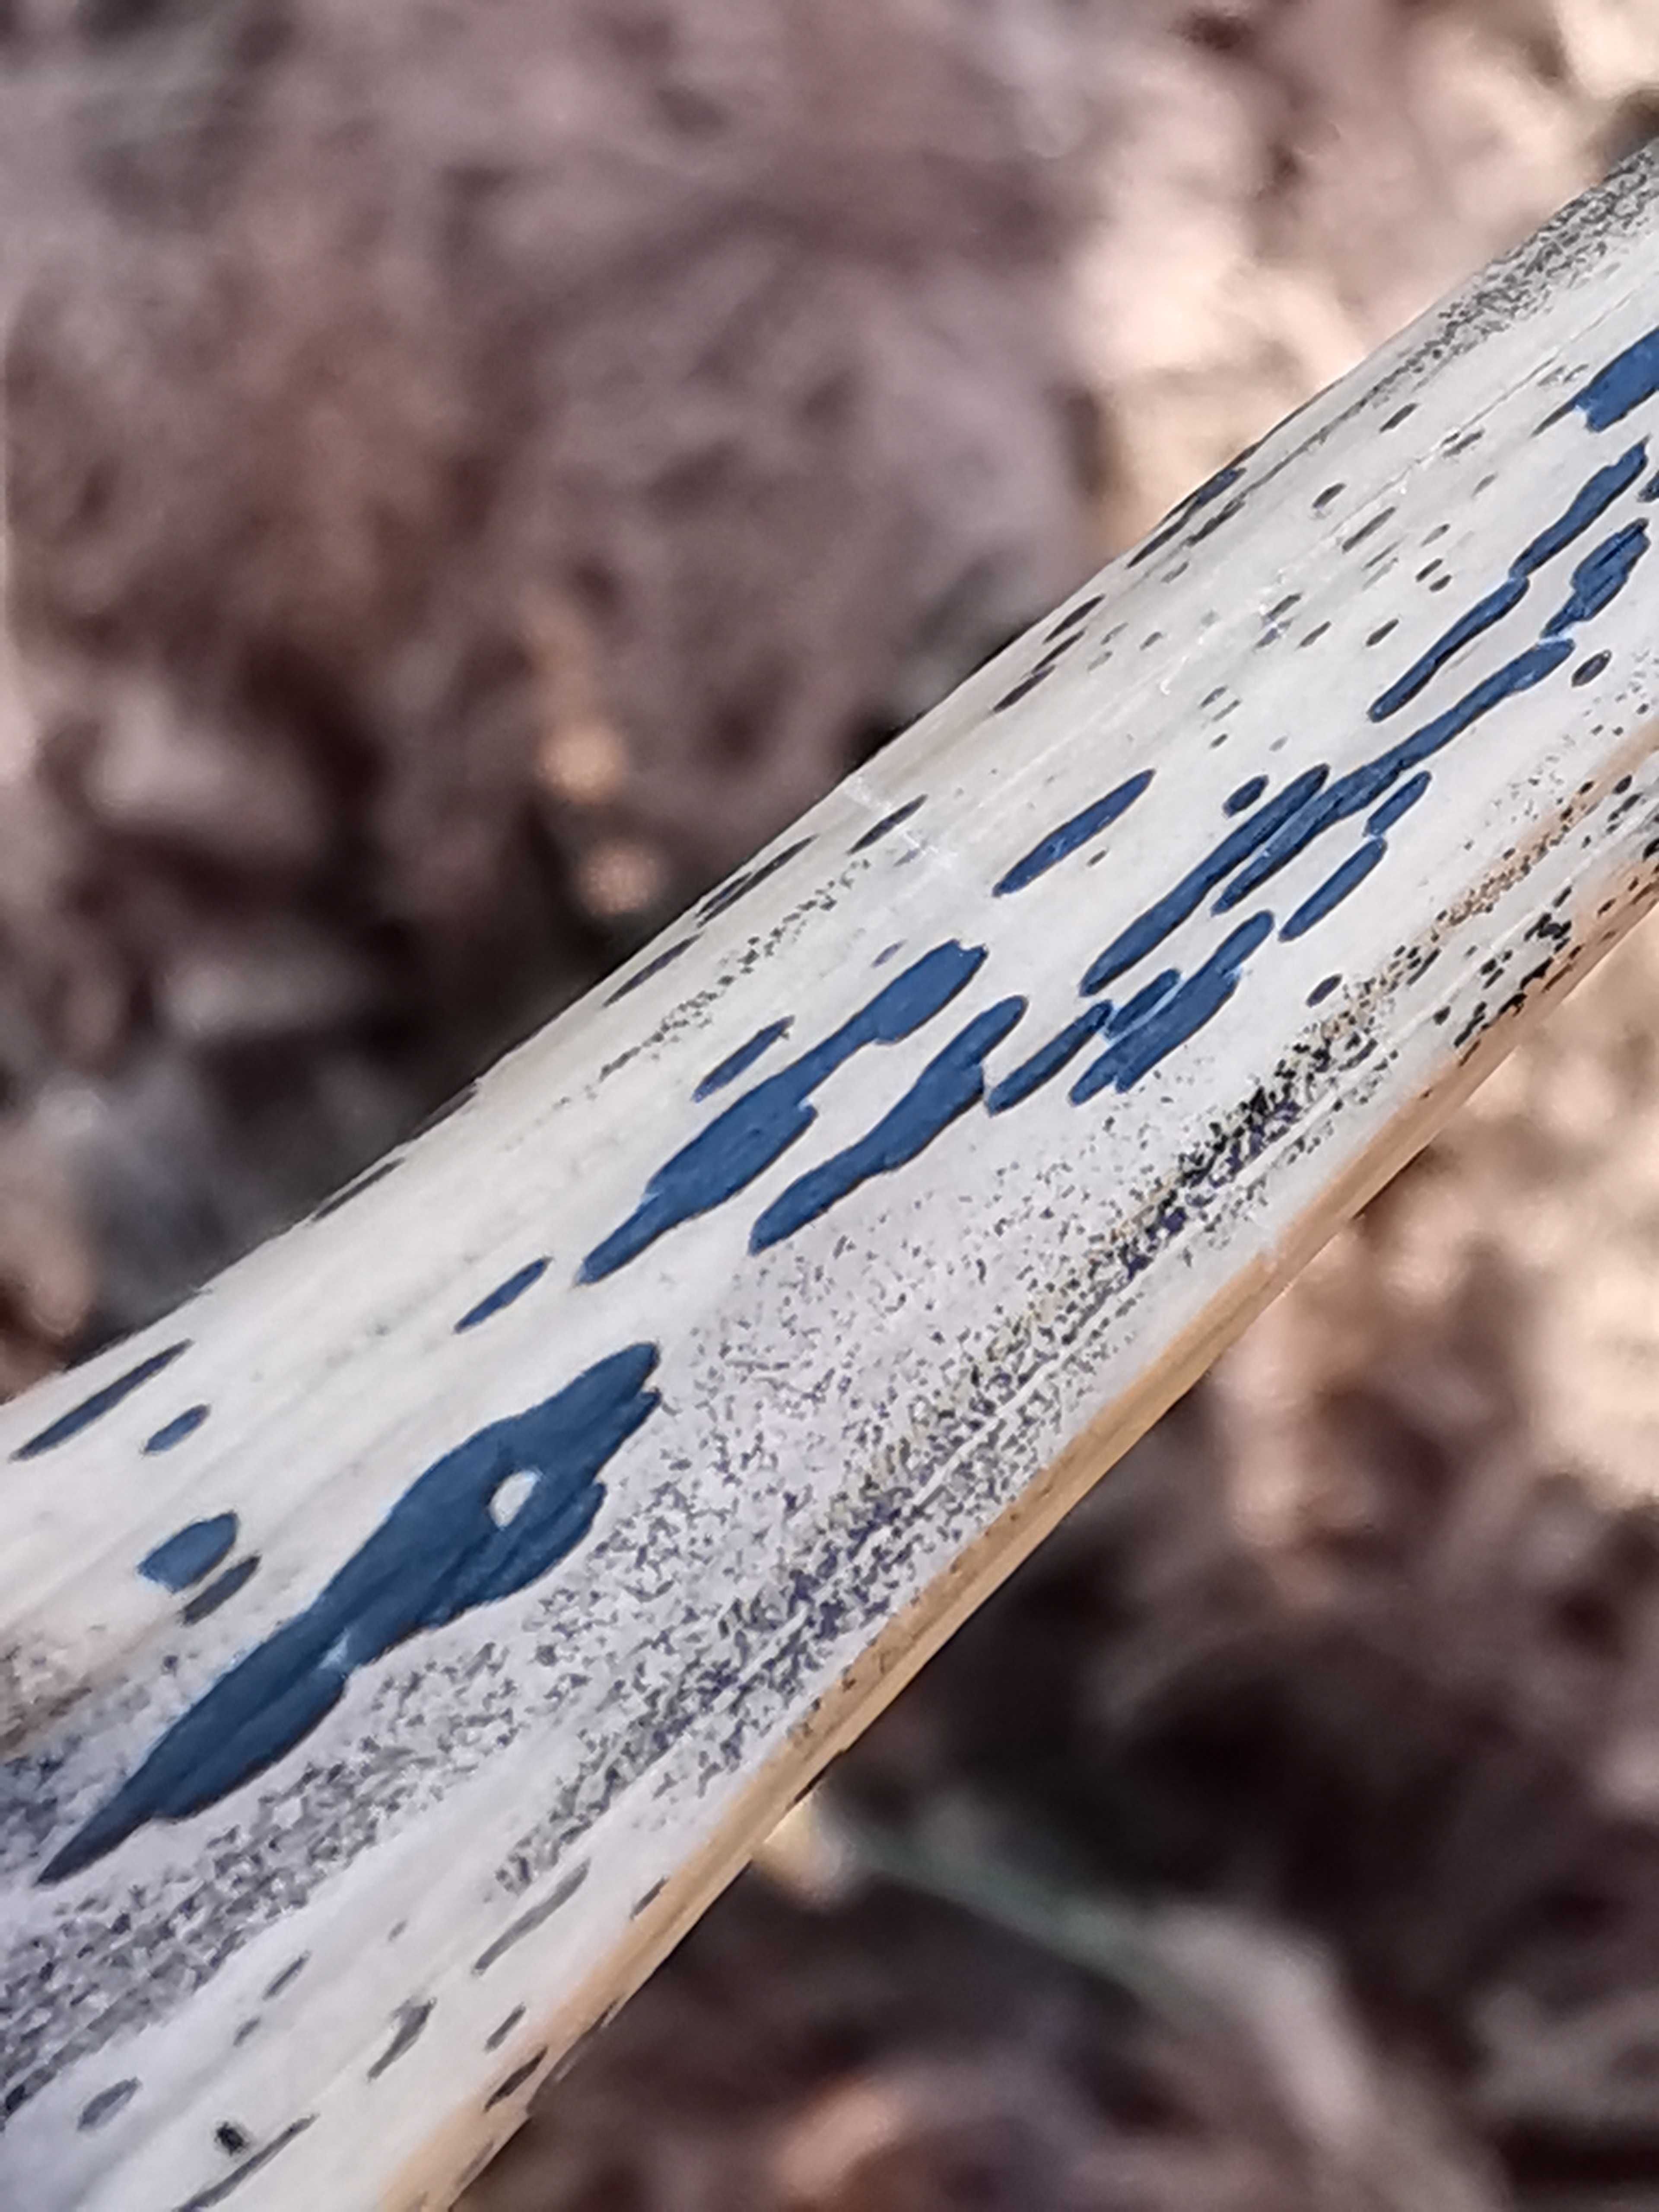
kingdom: Fungi
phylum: Ascomycota
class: Dothideomycetes
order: Pleosporales
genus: Rhopographus
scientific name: Rhopographus filicinus
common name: Bracken map
